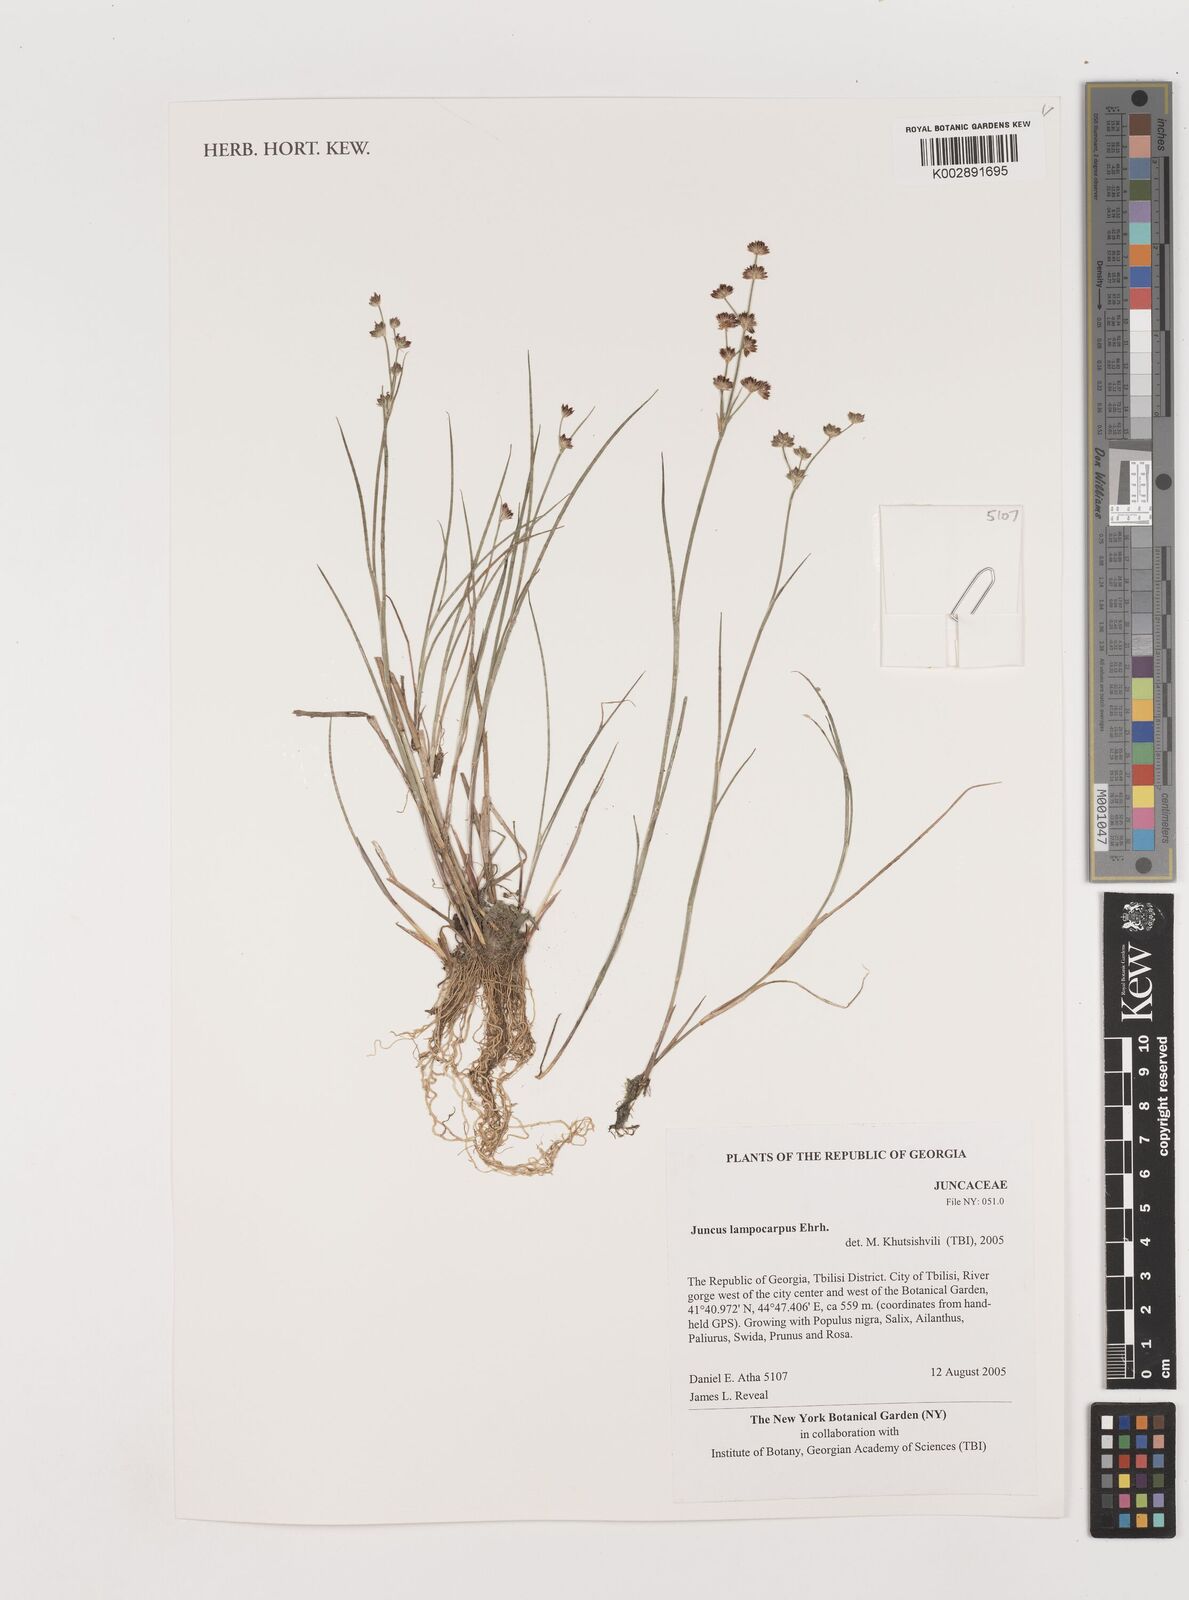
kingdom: Plantae
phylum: Tracheophyta
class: Liliopsida
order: Poales
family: Juncaceae
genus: Juncus
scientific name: Juncus astreptus
